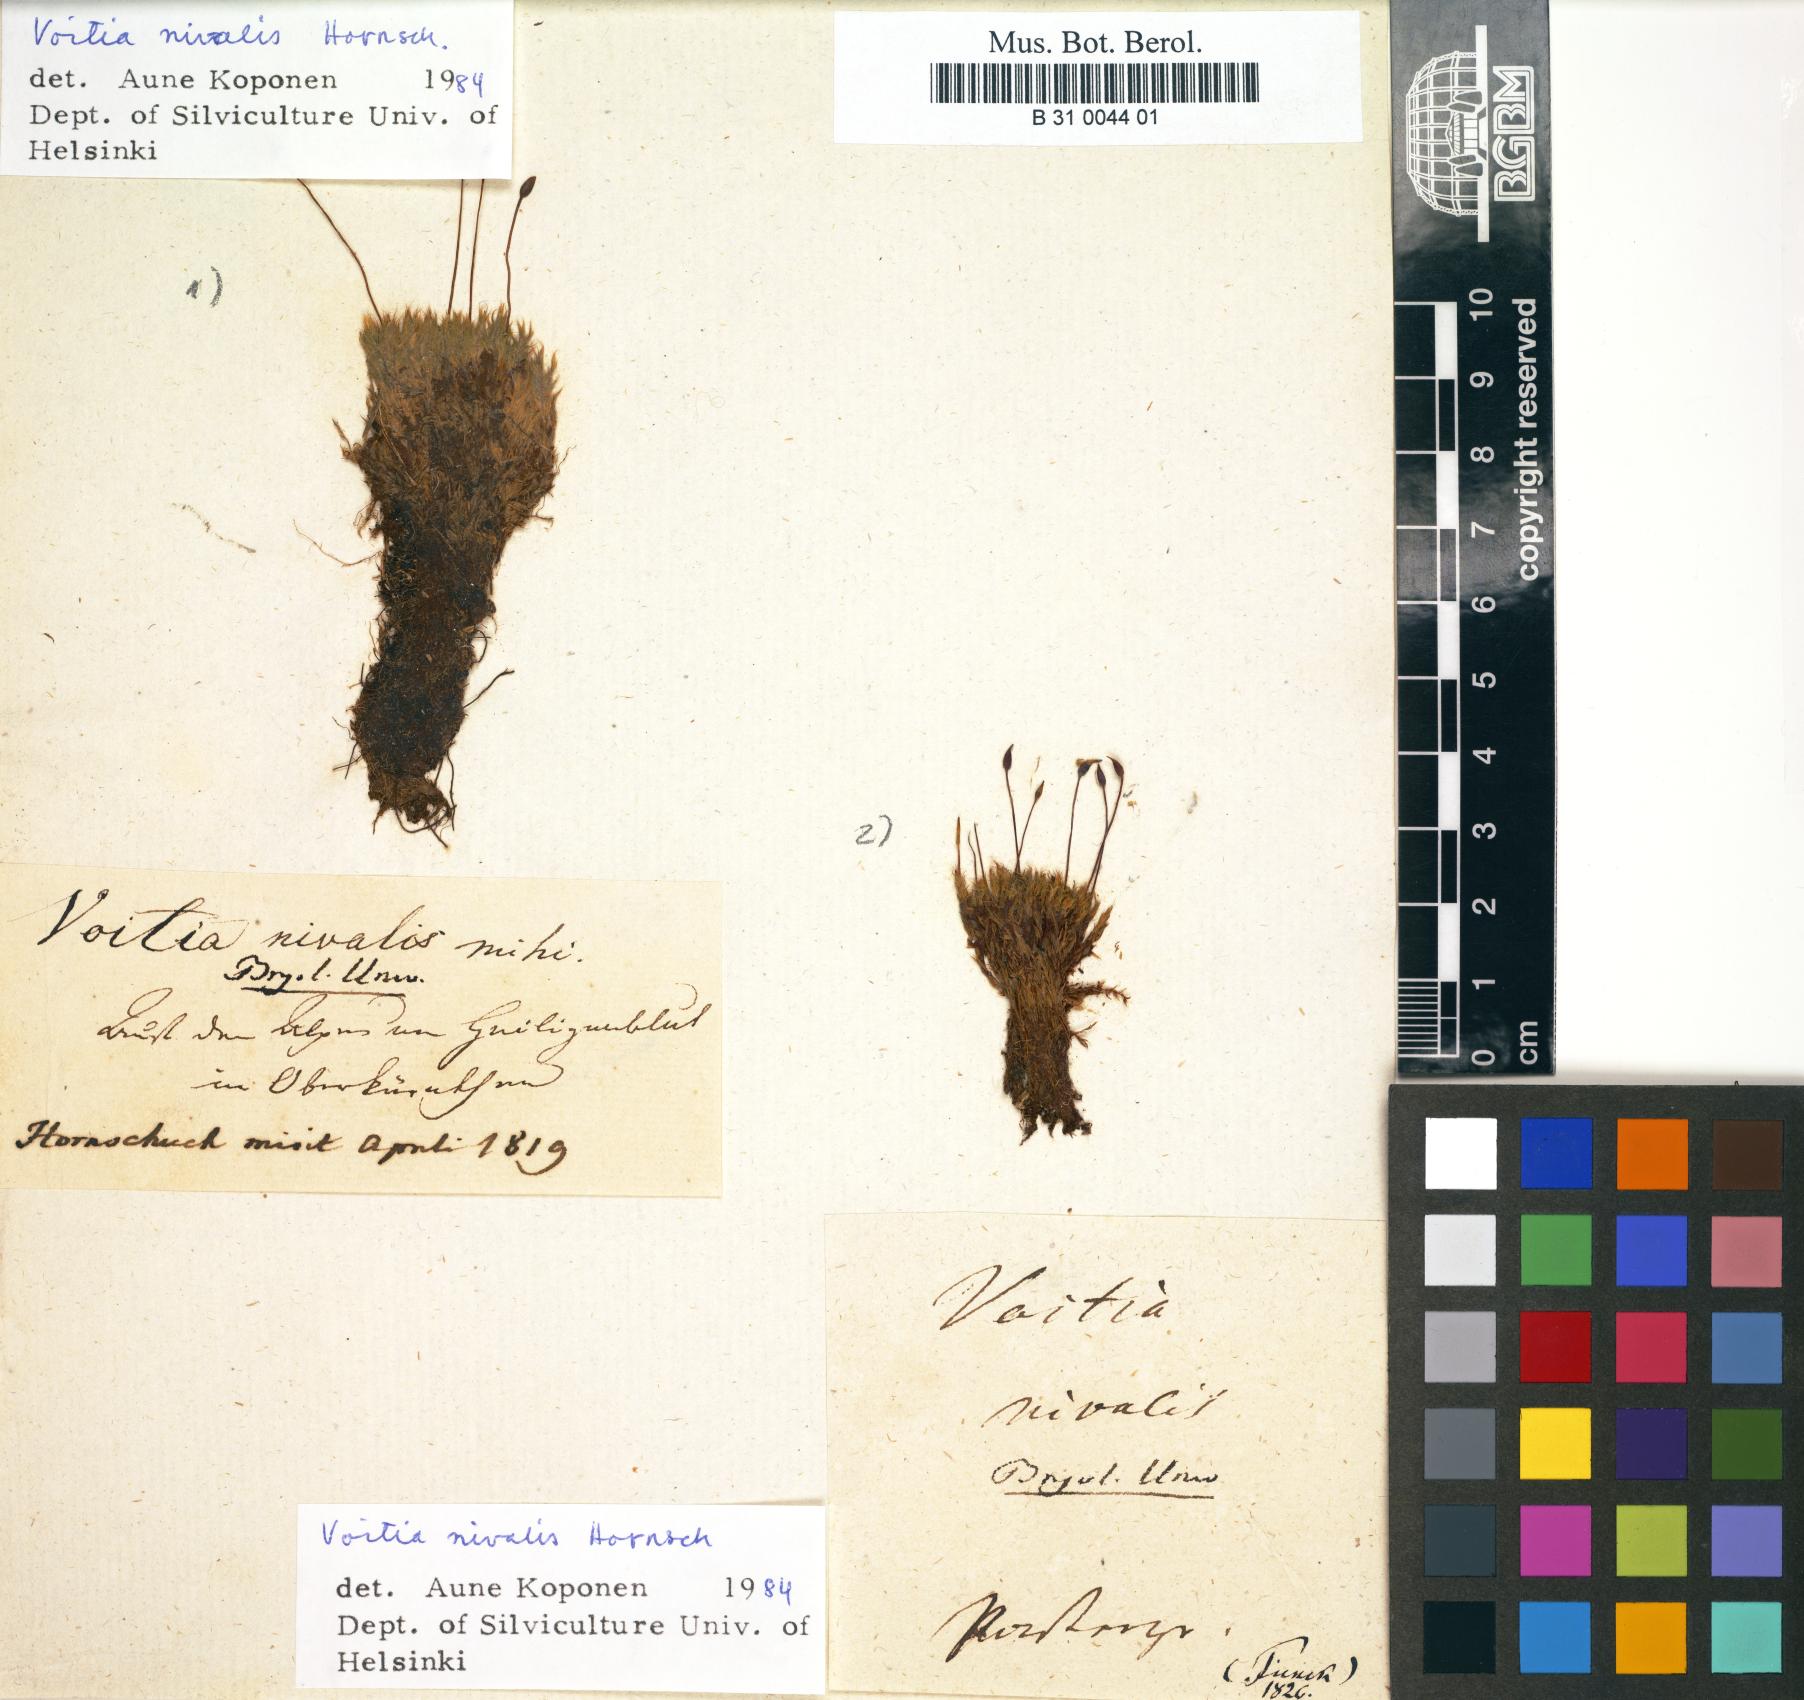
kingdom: Plantae
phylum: Bryophyta
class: Bryopsida
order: Splachnales
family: Splachnaceae
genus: Voitia
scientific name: Voitia nivalis
